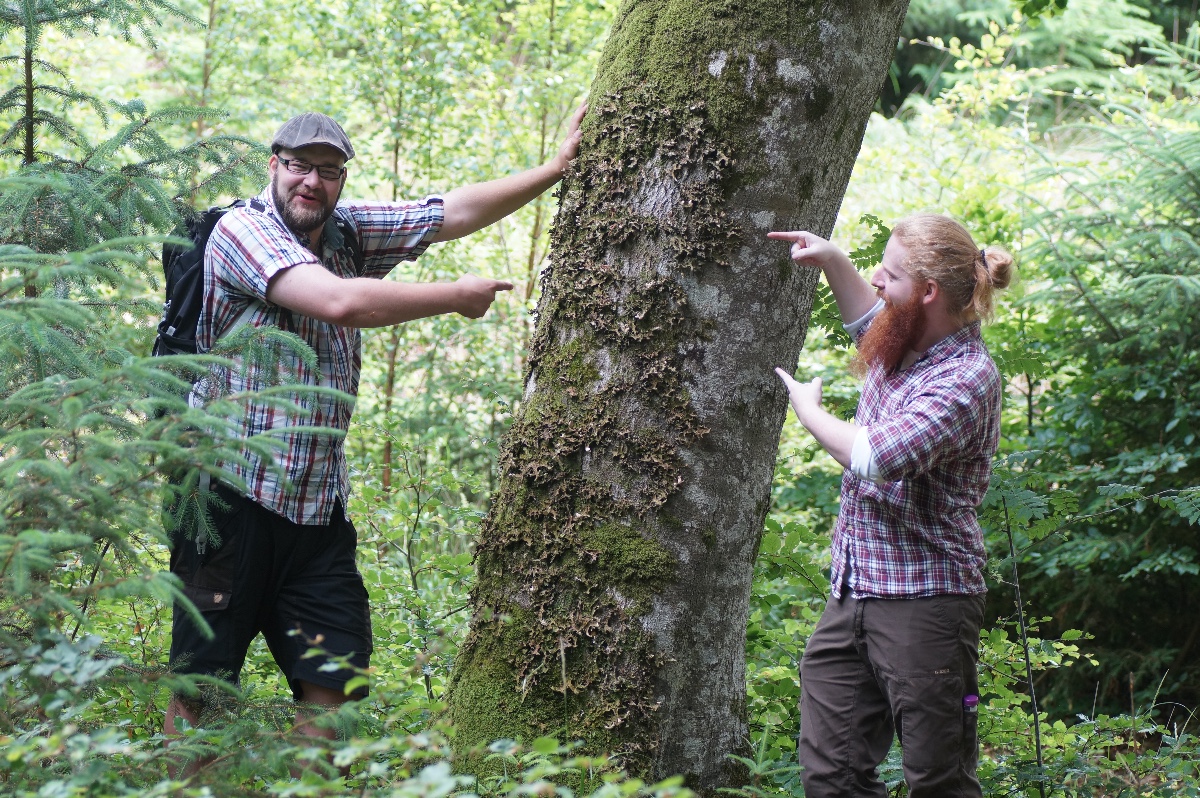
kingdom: Fungi
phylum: Ascomycota
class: Lecanoromycetes
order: Peltigerales
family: Lobariaceae
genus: Lobaria
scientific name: Lobaria pulmonaria
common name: almindelig lungelav
